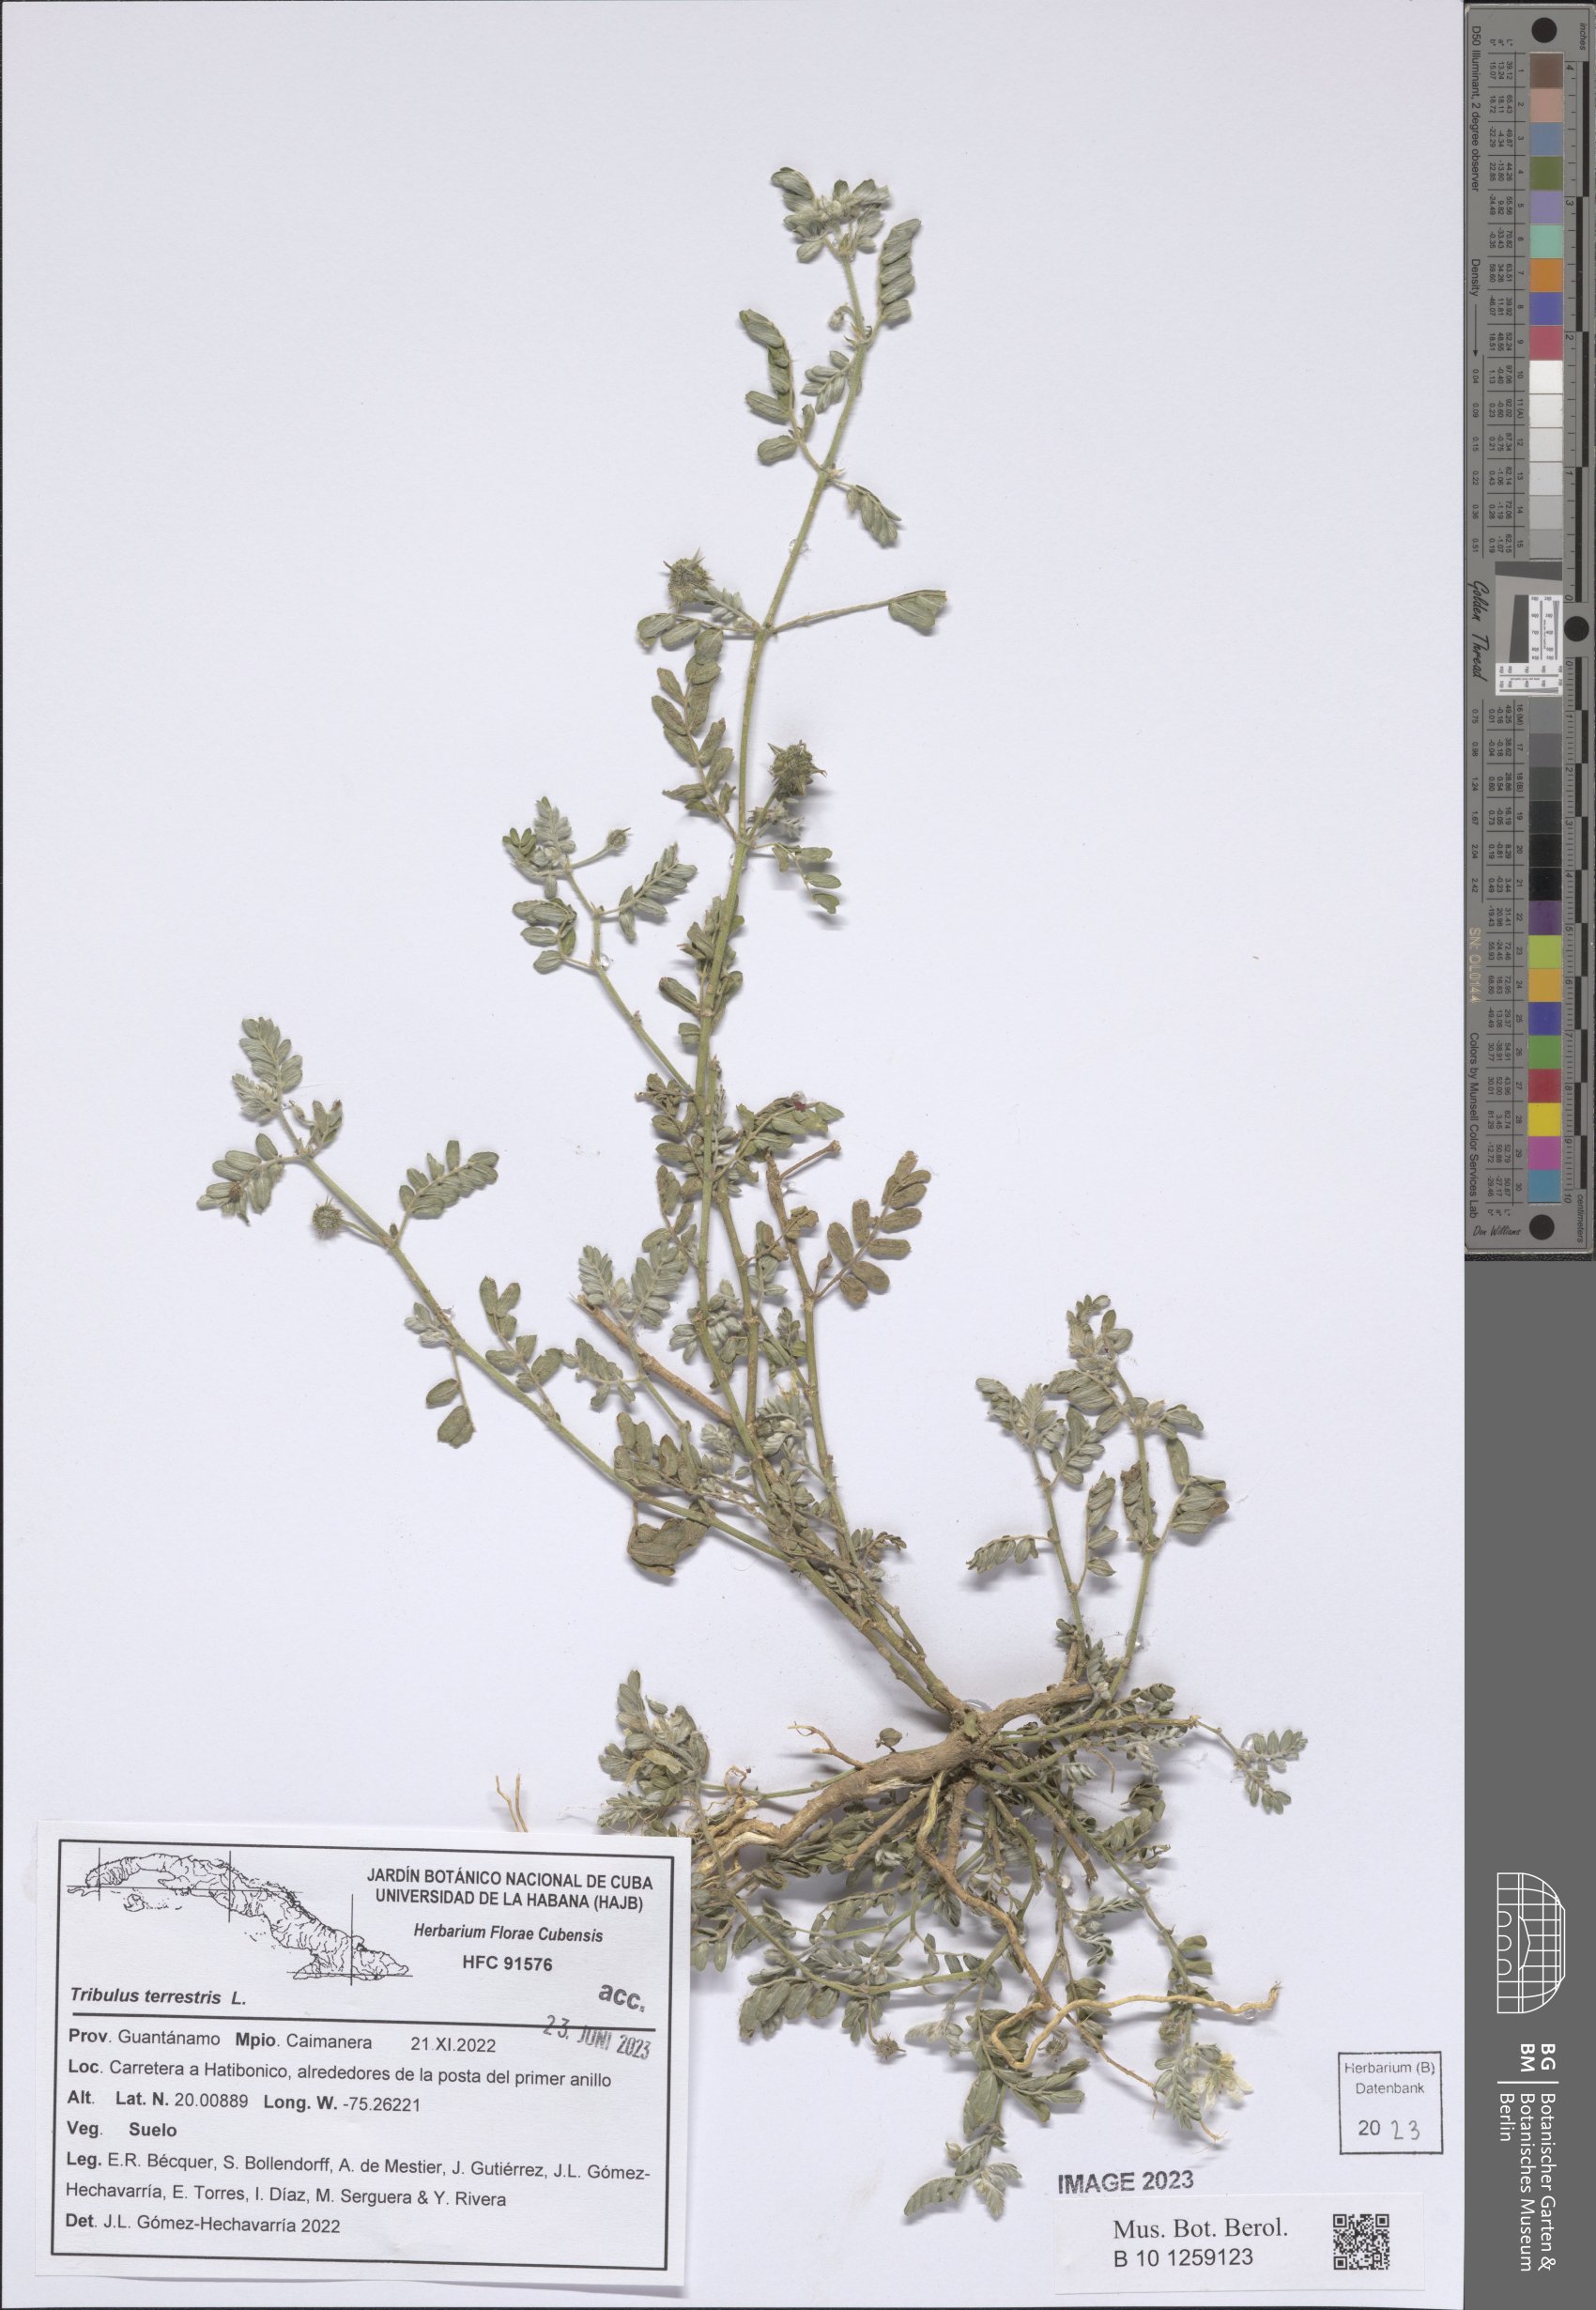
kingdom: Plantae
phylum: Tracheophyta
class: Magnoliopsida
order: Zygophyllales
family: Zygophyllaceae
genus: Tribulus
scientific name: Tribulus terrestris
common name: Puncturevine
